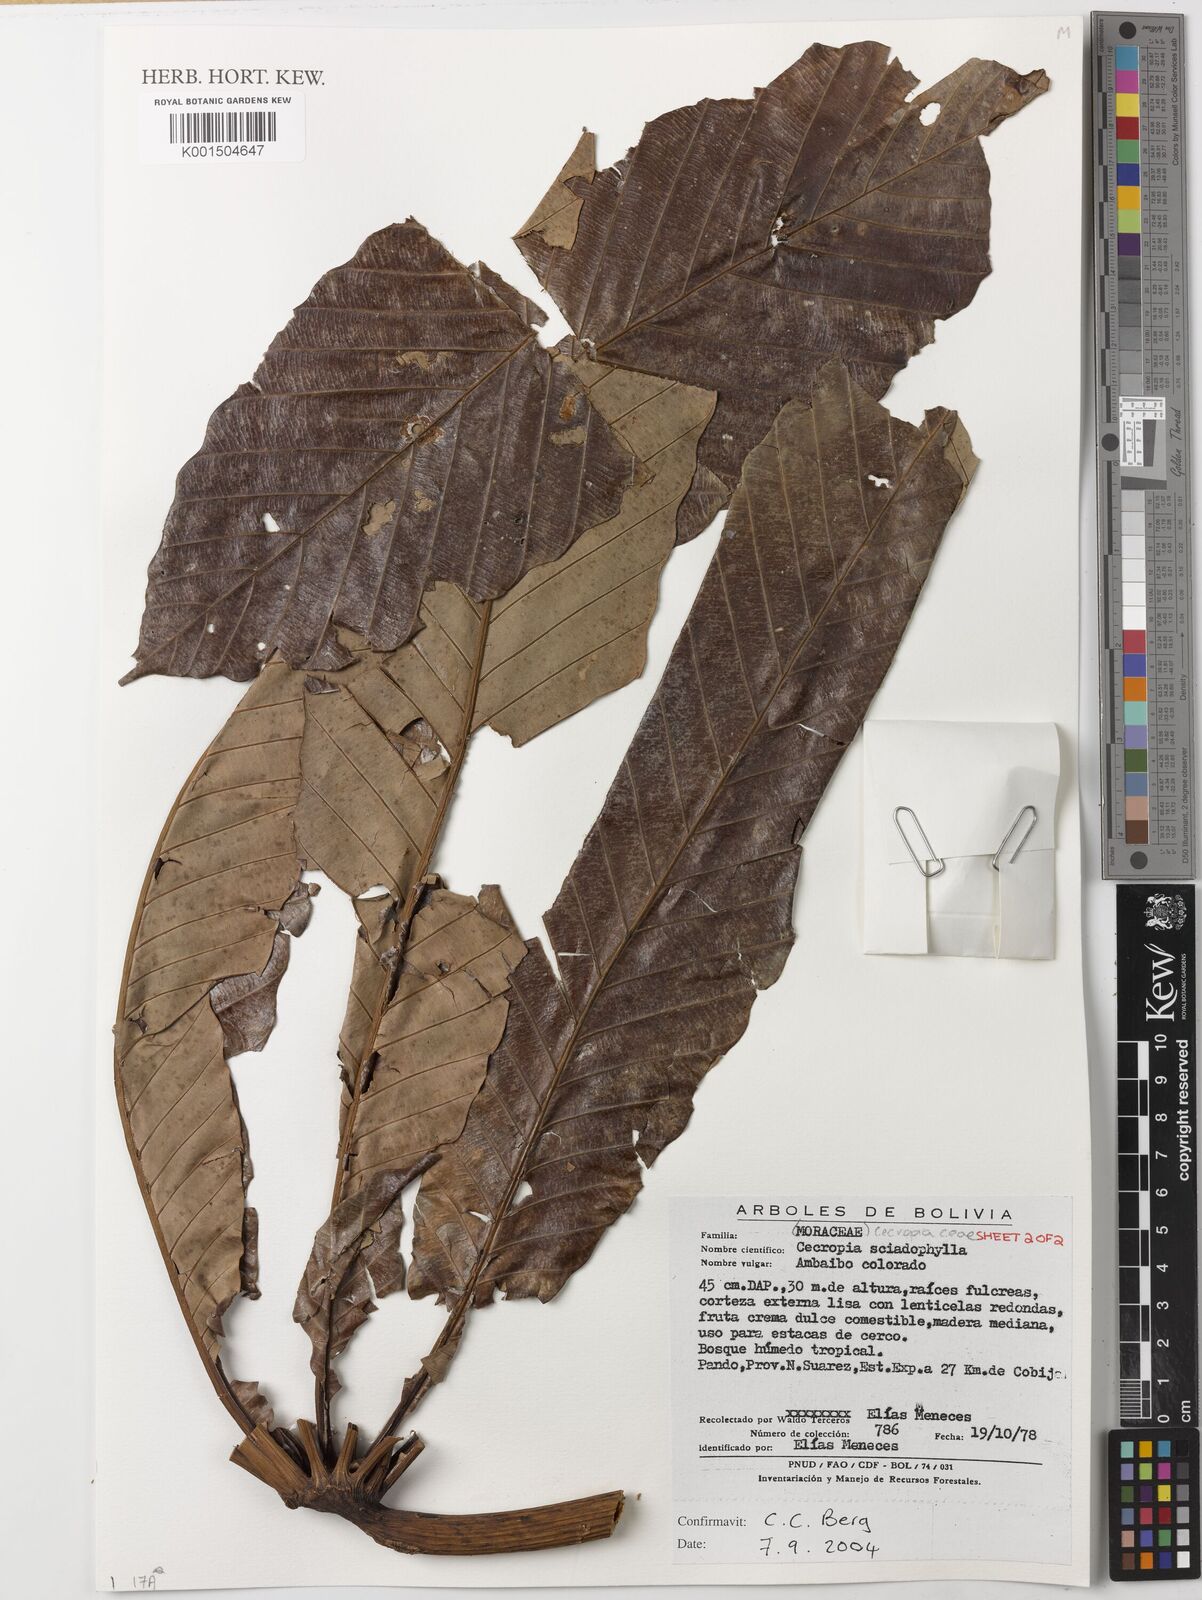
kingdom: Plantae
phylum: Tracheophyta
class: Magnoliopsida
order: Rosales
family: Urticaceae
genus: Cecropia
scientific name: Cecropia sciadophylla
